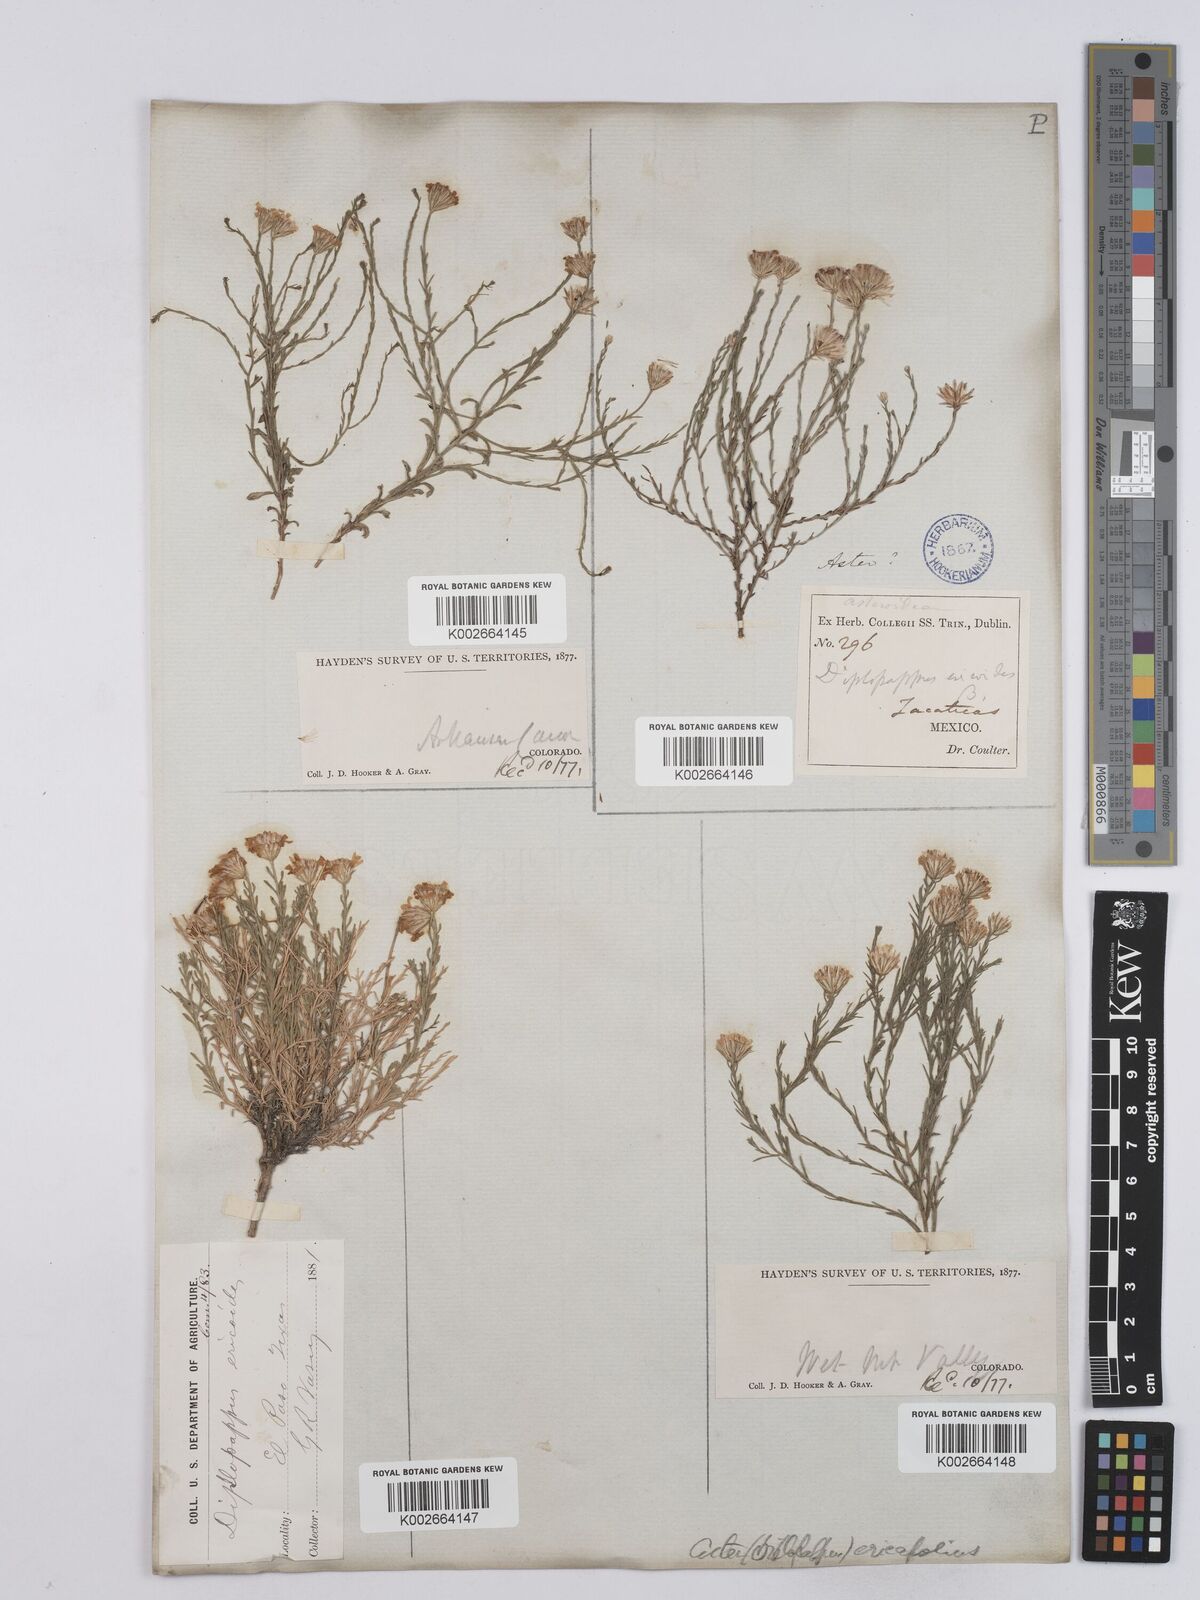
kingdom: Plantae
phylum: Tracheophyta
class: Magnoliopsida
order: Asterales
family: Asteraceae
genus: Chaetopappa
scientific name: Chaetopappa ericoides
